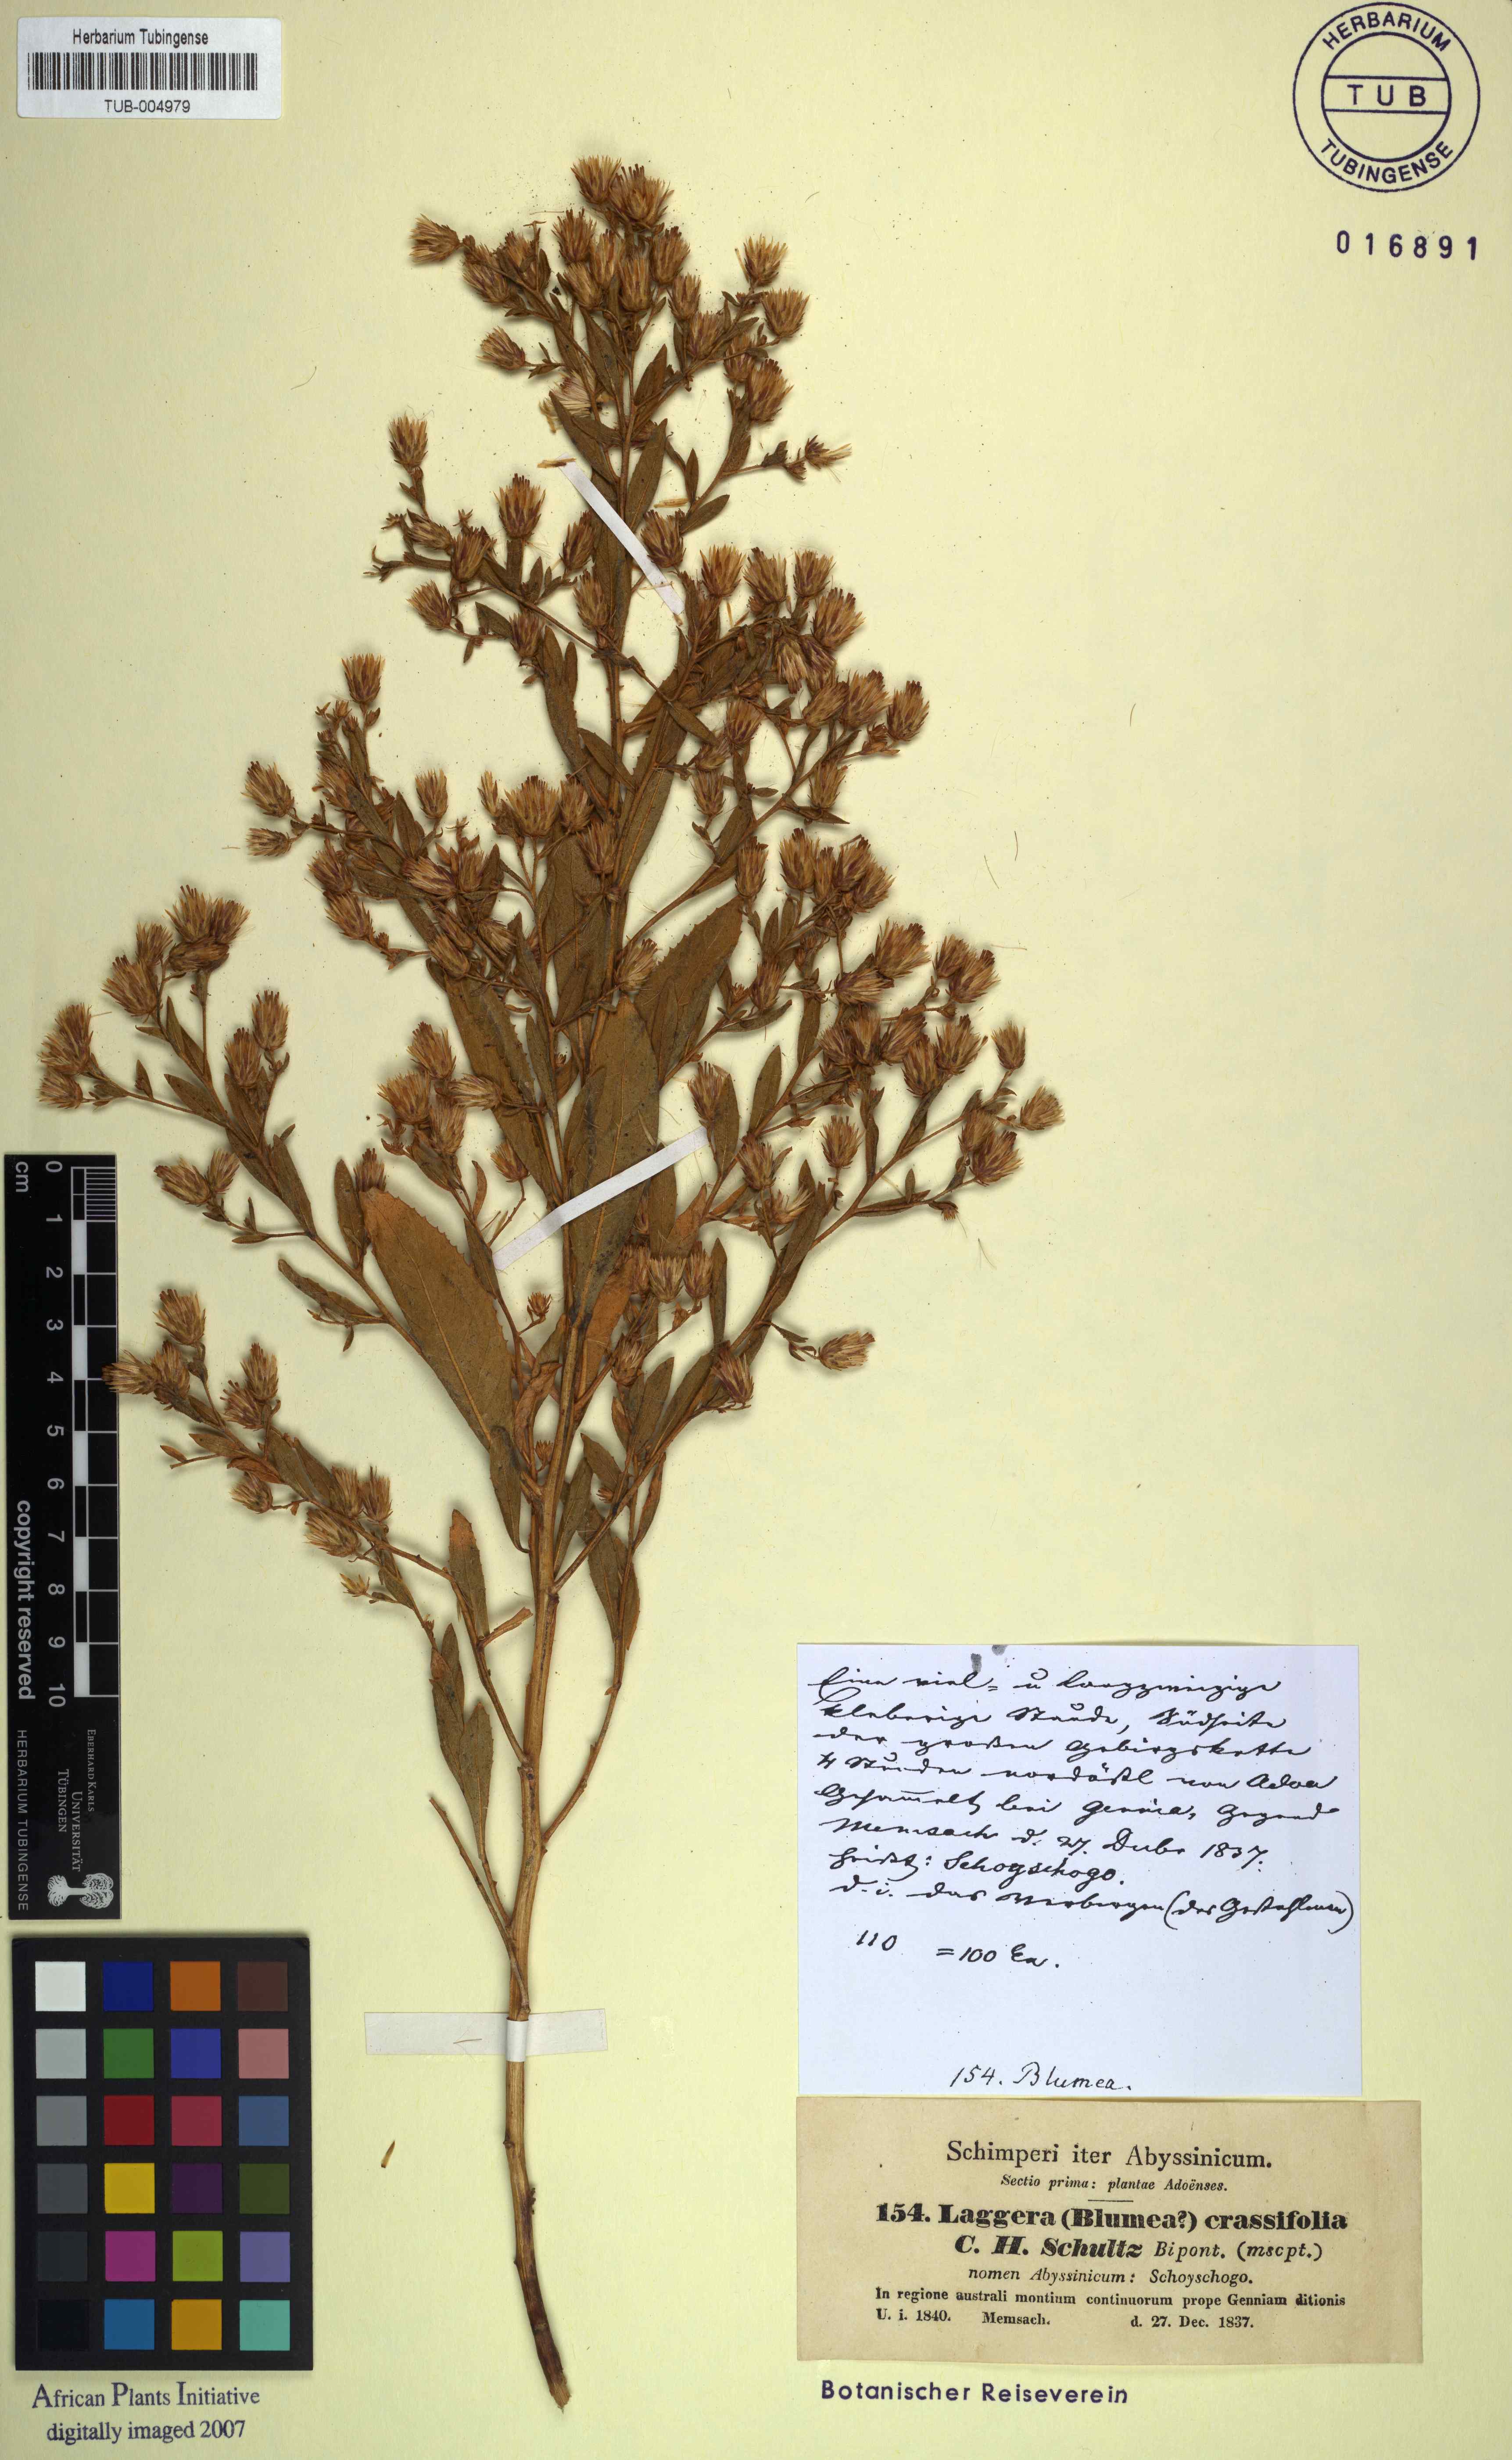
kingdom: Plantae
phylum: Tracheophyta
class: Magnoliopsida
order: Asterales
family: Asteraceae
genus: Laggera
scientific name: Laggera crassifolia
